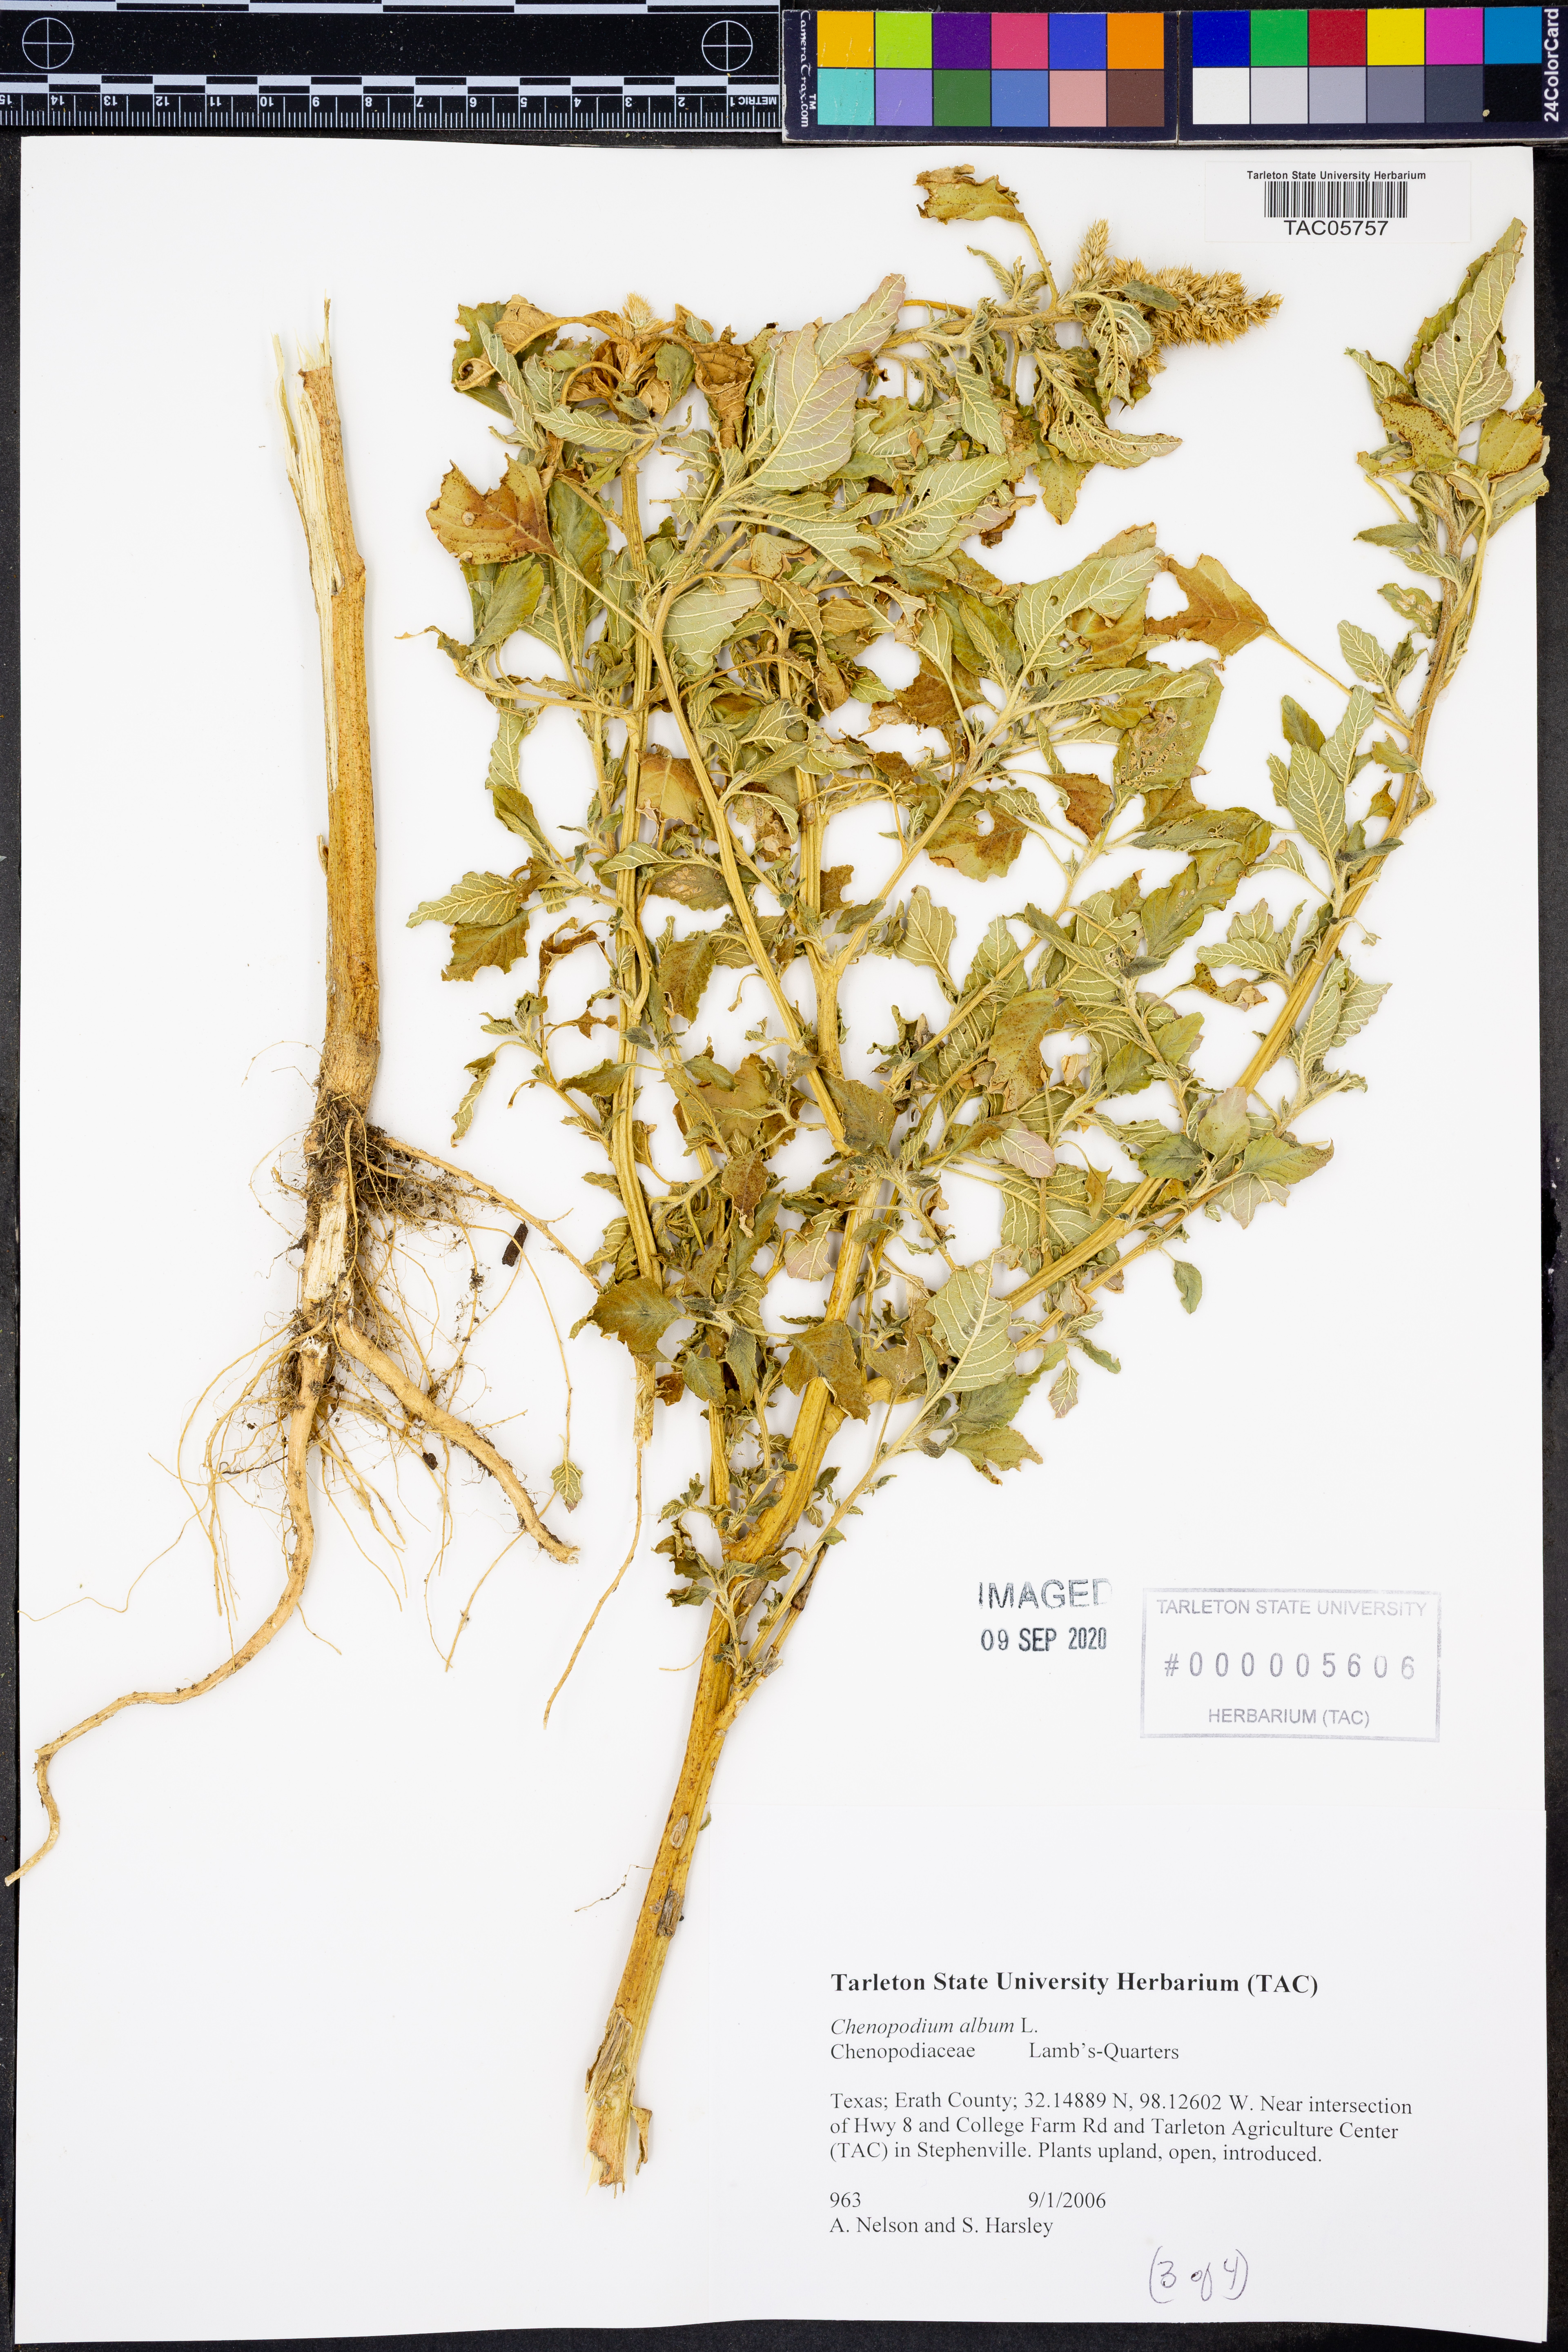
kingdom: Plantae
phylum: Tracheophyta
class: Magnoliopsida
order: Caryophyllales
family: Amaranthaceae
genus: Chenopodium
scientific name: Chenopodium album
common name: Fat-hen
